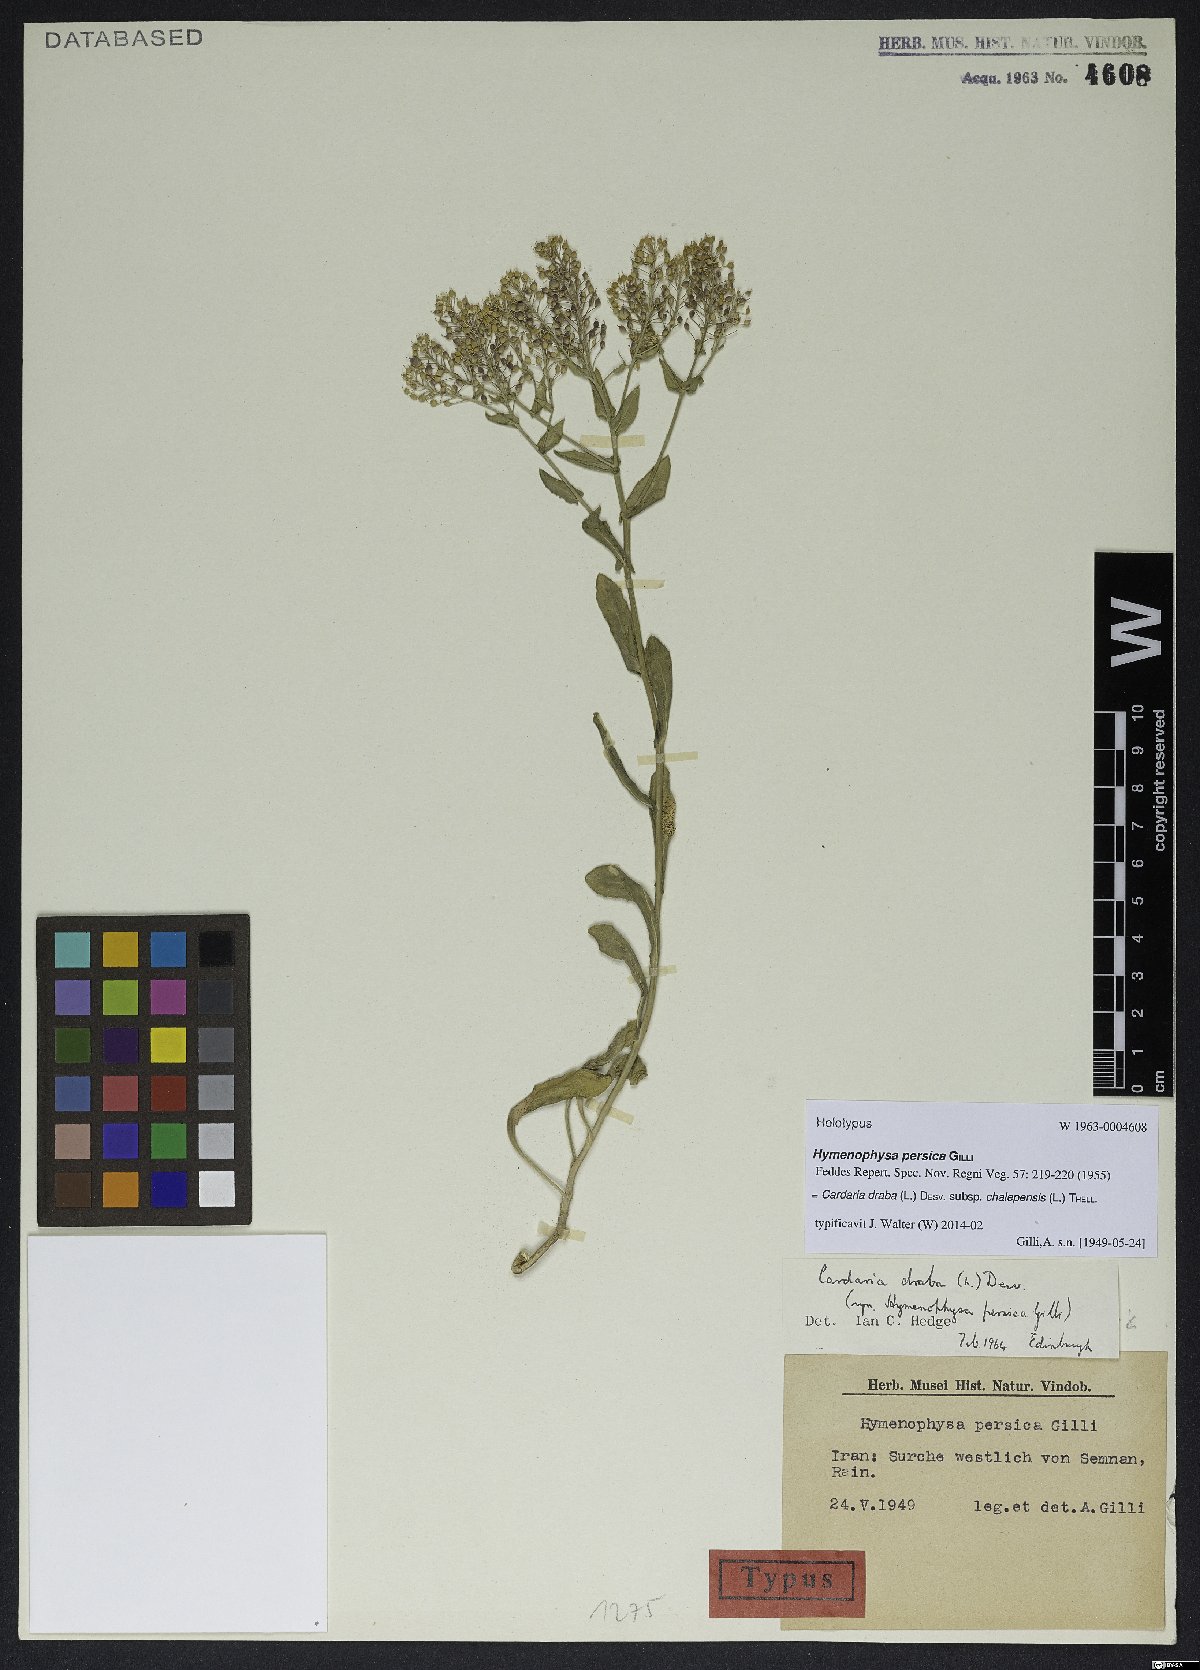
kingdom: Plantae
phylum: Tracheophyta
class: Magnoliopsida
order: Brassicales
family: Brassicaceae
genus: Lepidium
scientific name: Lepidium chalepense
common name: Orbicular whitetop
